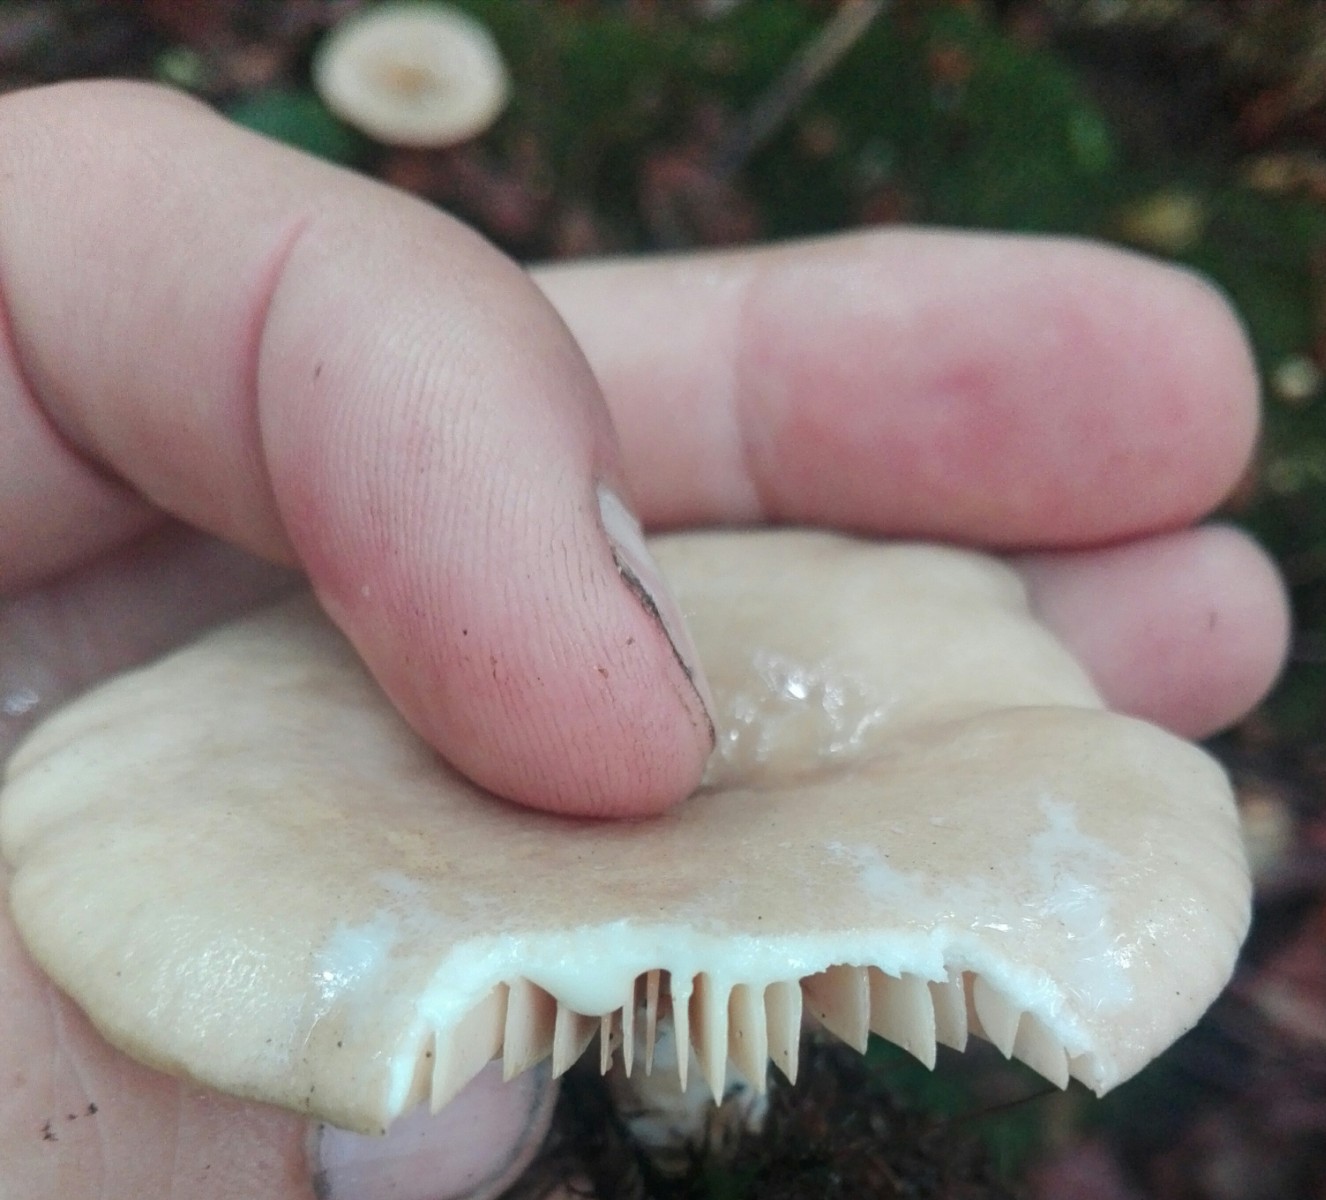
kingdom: Fungi
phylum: Basidiomycota
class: Agaricomycetes
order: Russulales
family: Russulaceae
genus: Lactarius
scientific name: Lactarius pyrogalus
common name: hassel-mælkehat
